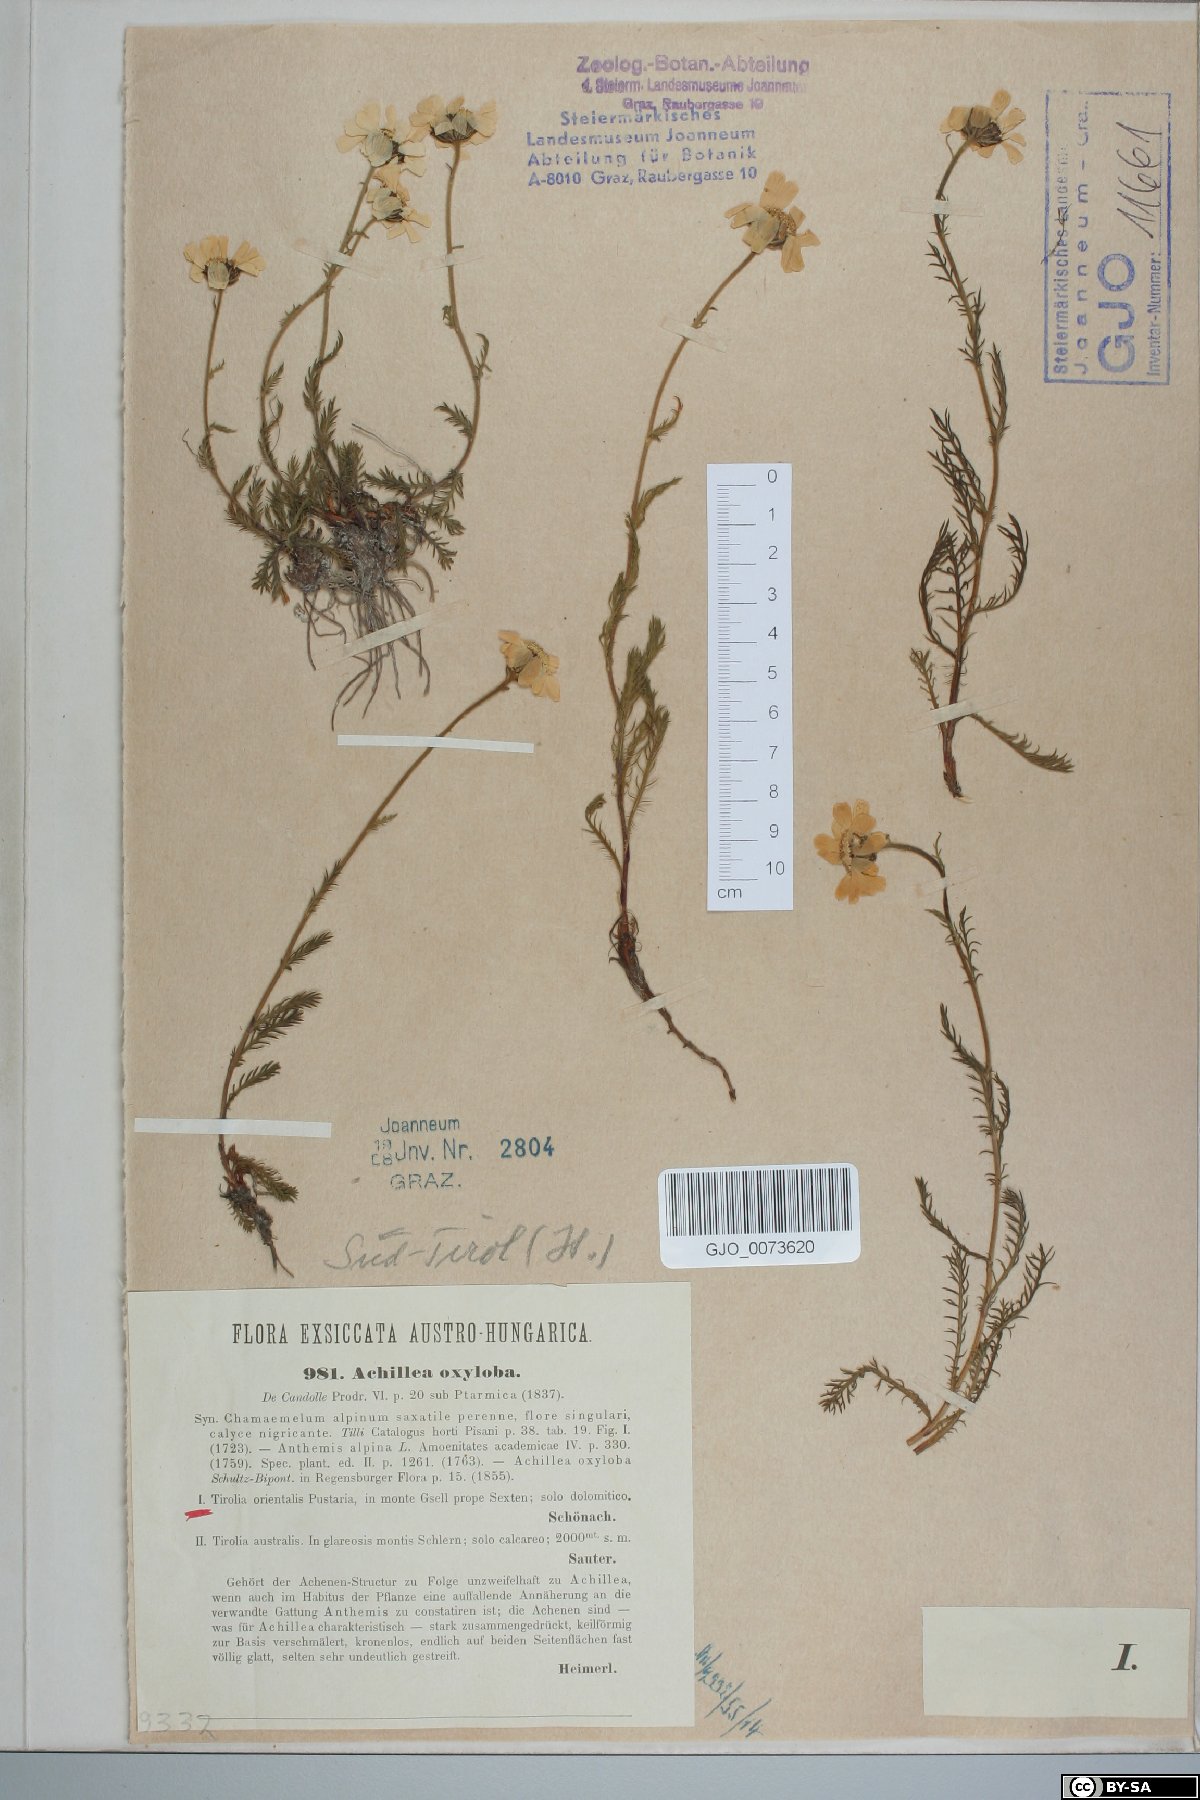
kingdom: Plantae
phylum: Tracheophyta
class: Magnoliopsida
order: Asterales
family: Asteraceae
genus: Achillea
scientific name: Achillea oxyloba
